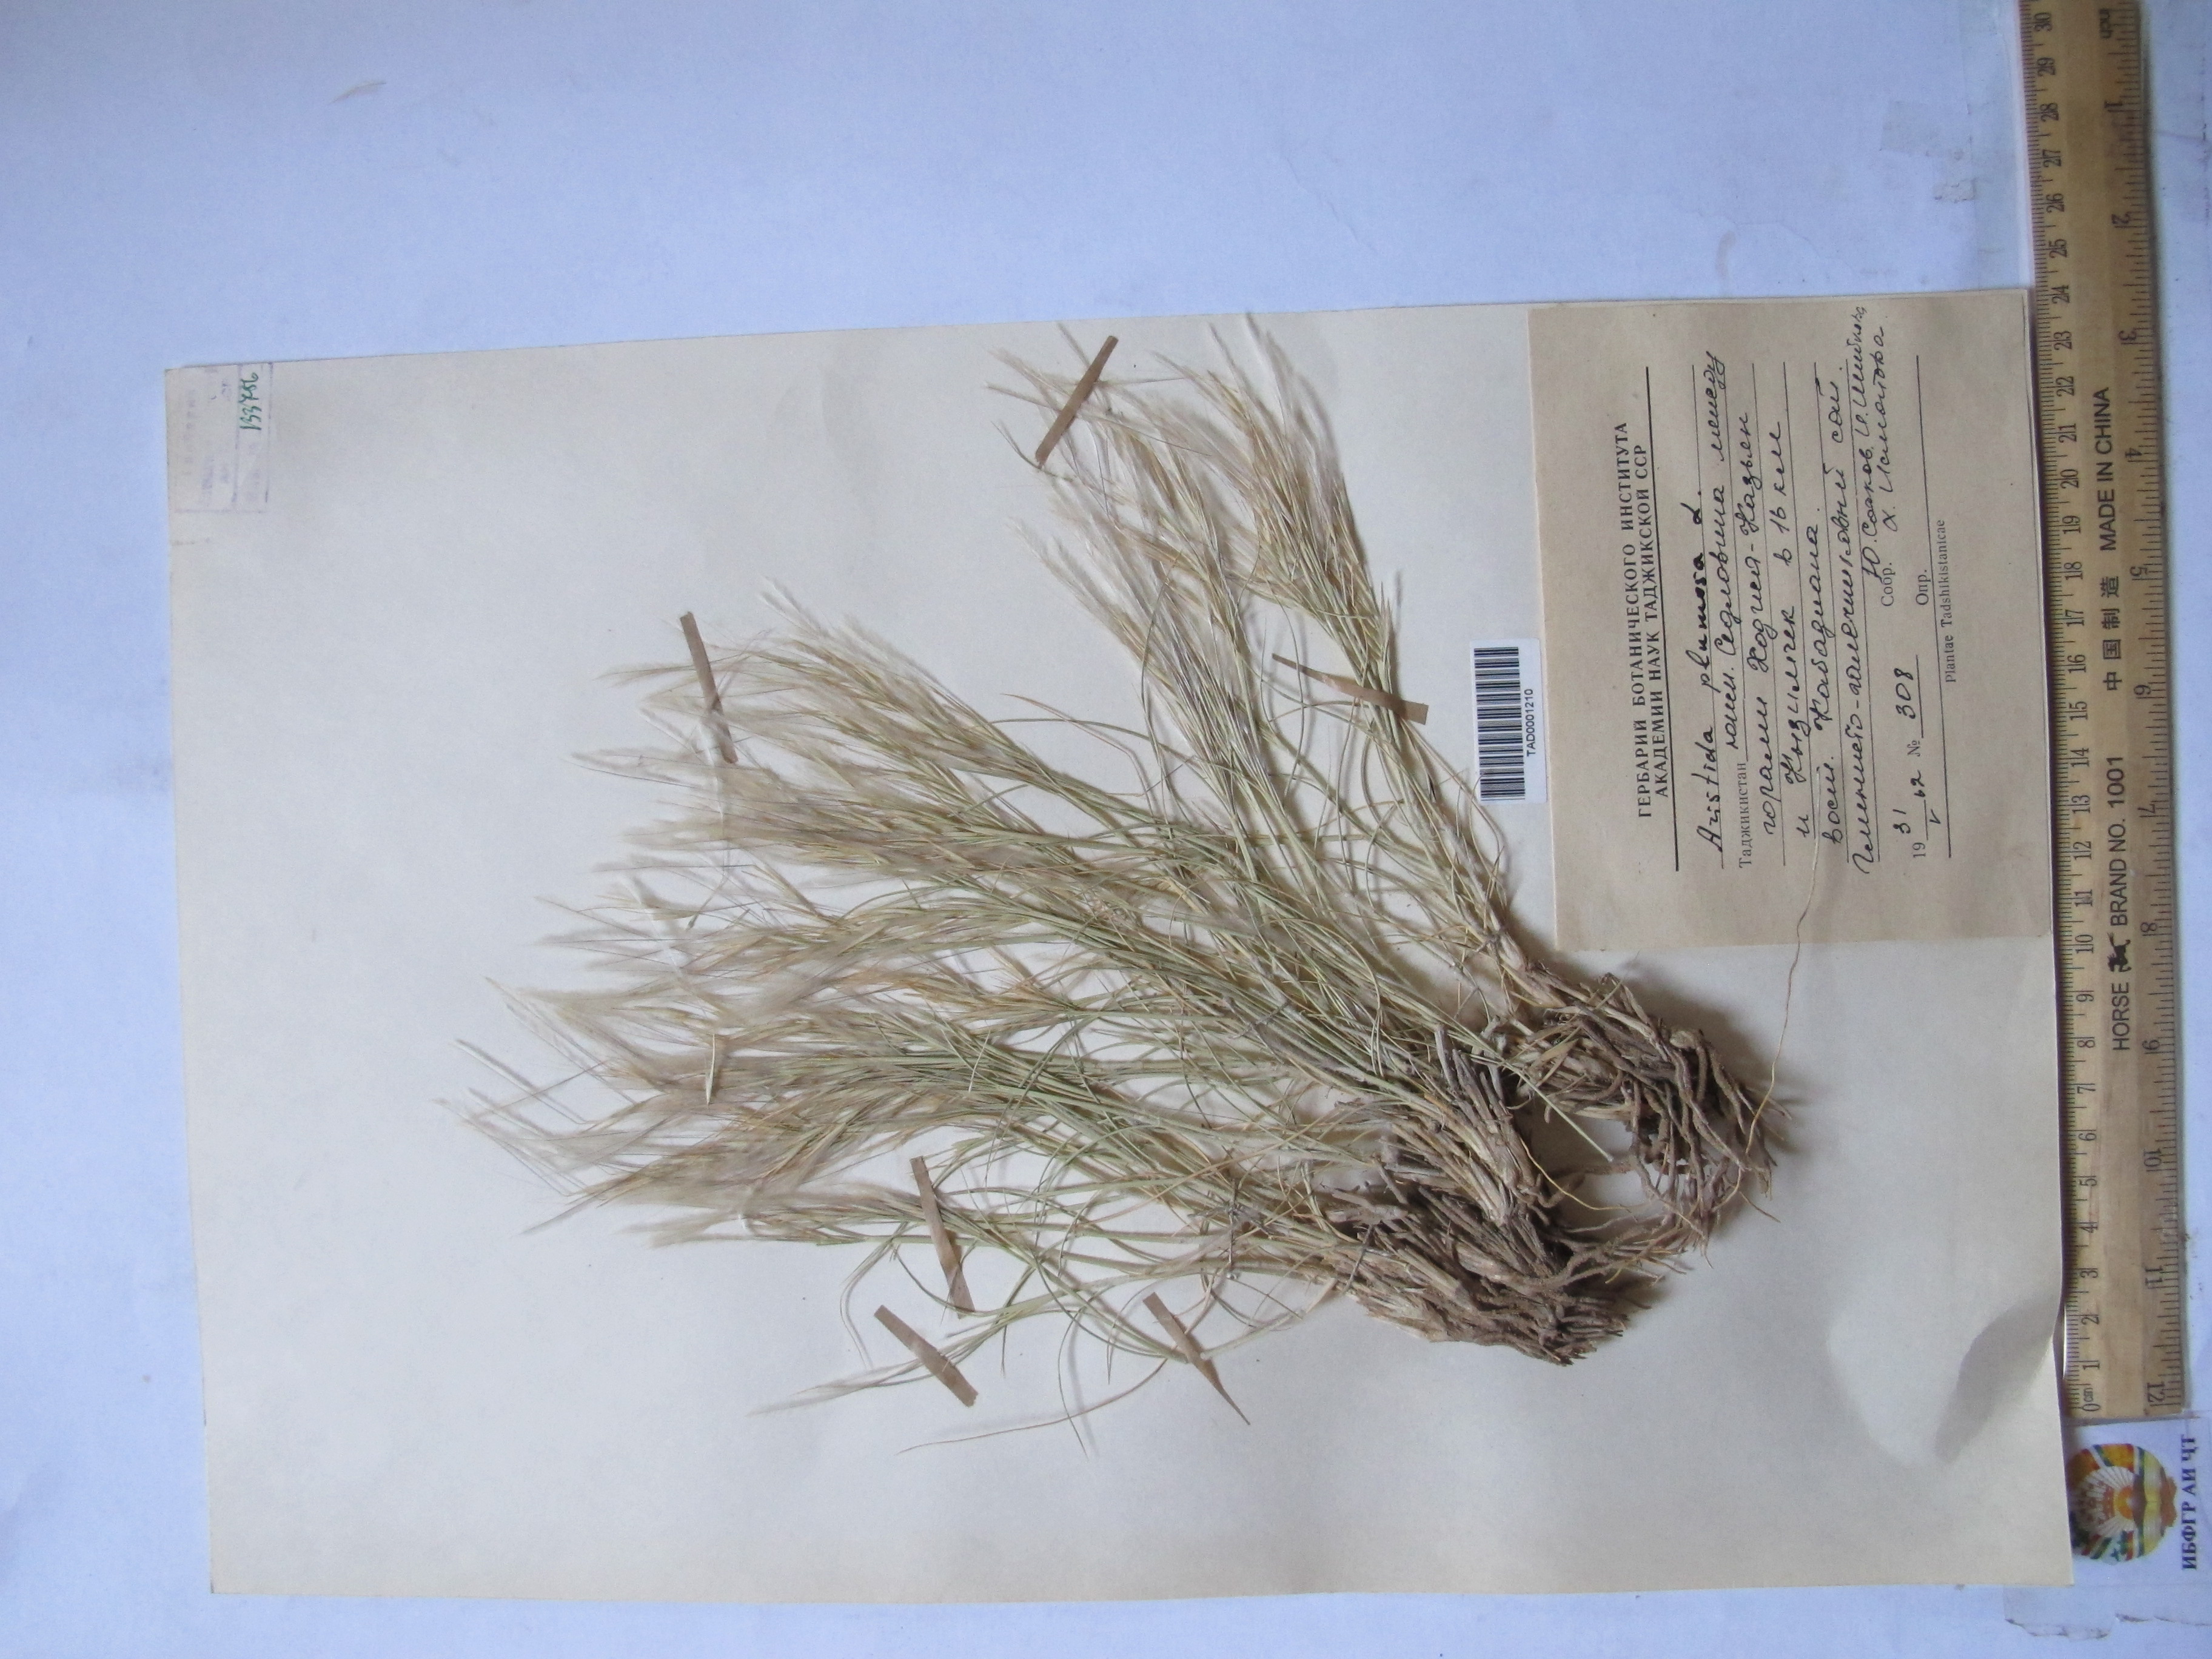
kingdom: Plantae
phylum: Tracheophyta
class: Liliopsida
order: Poales
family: Poaceae
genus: Stipagrostis
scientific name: Stipagrostis plumosa
